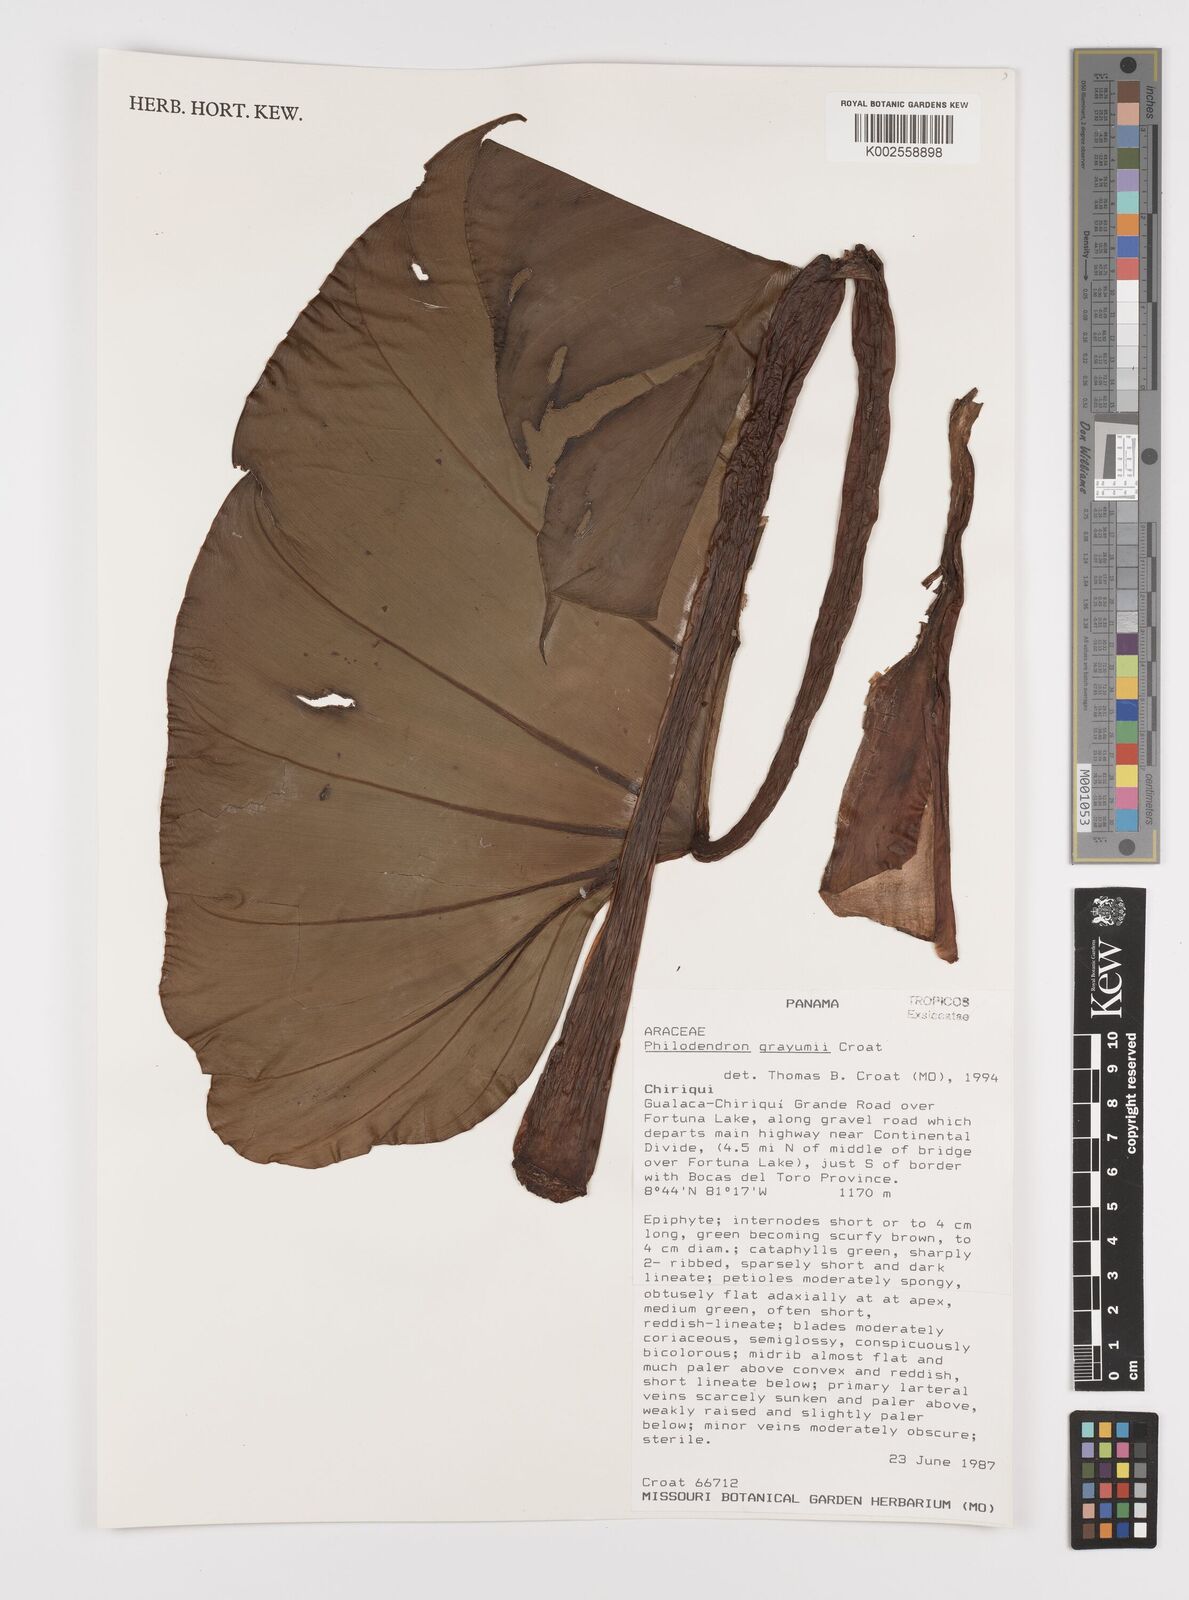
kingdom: Plantae
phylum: Tracheophyta
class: Liliopsida
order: Alismatales
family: Araceae
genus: Philodendron
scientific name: Philodendron grayumii
